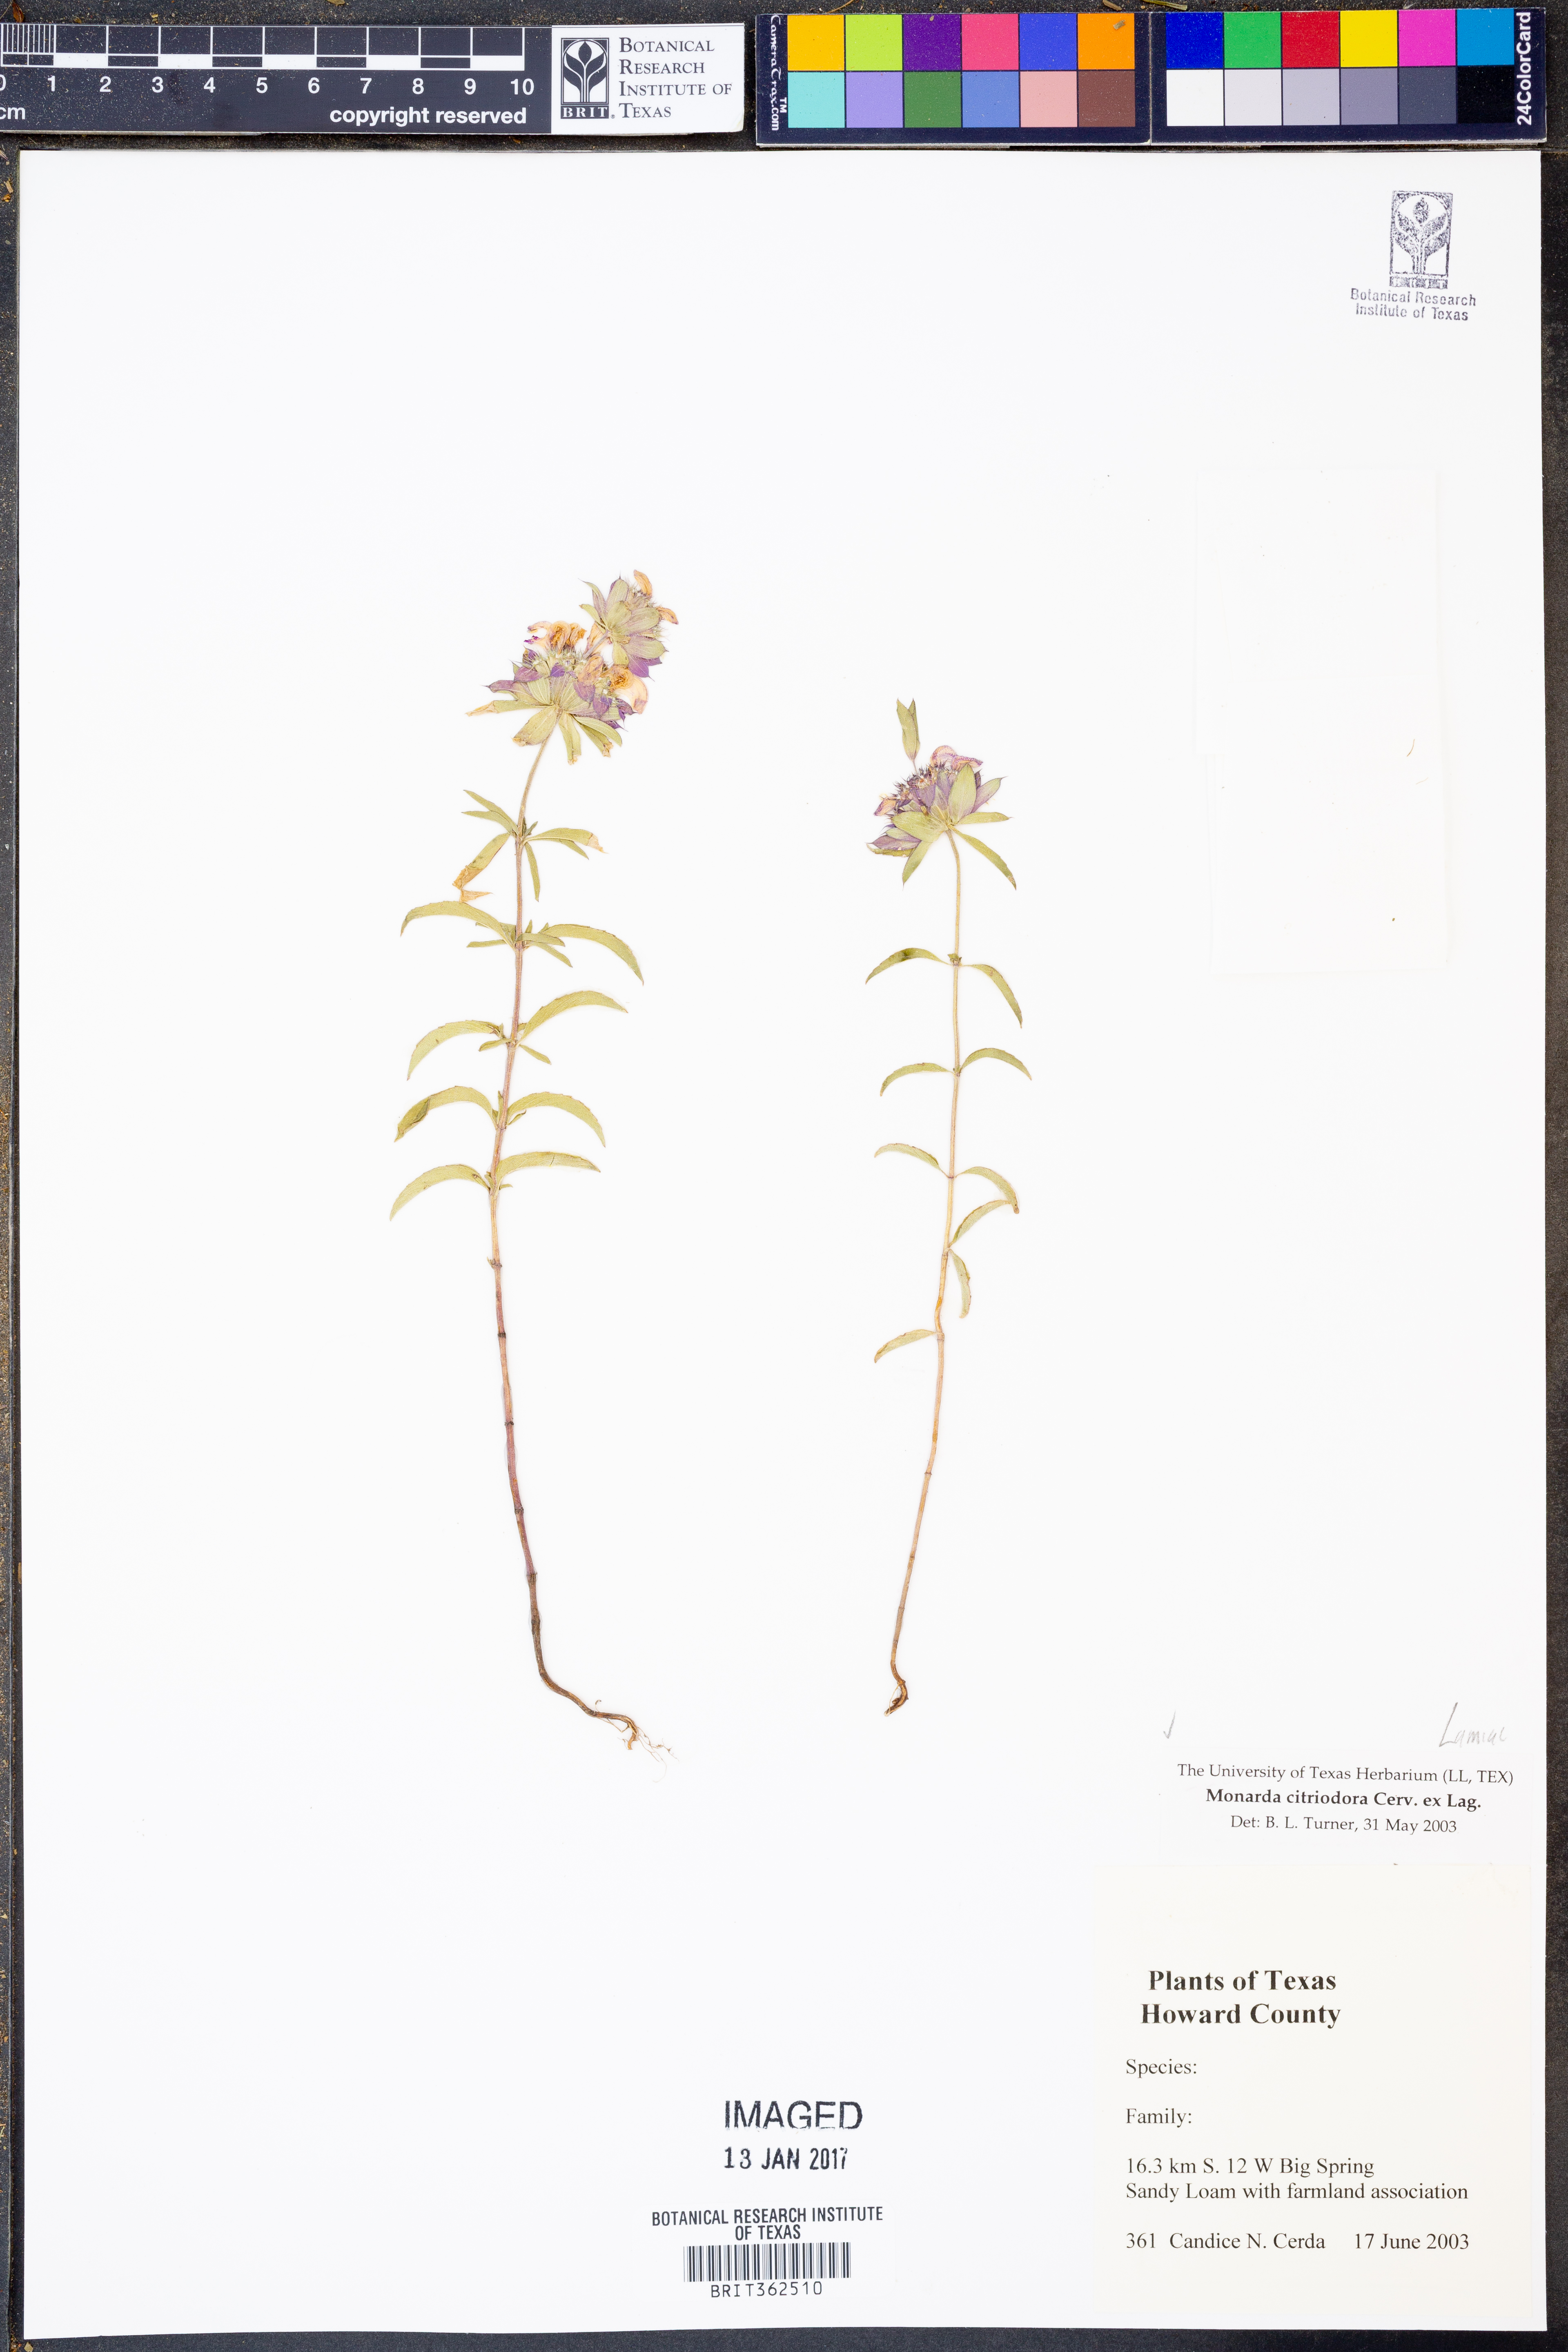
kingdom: Plantae
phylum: Tracheophyta
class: Magnoliopsida
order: Lamiales
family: Lamiaceae
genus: Monarda
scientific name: Monarda citriodora
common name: Lemon beebalm
